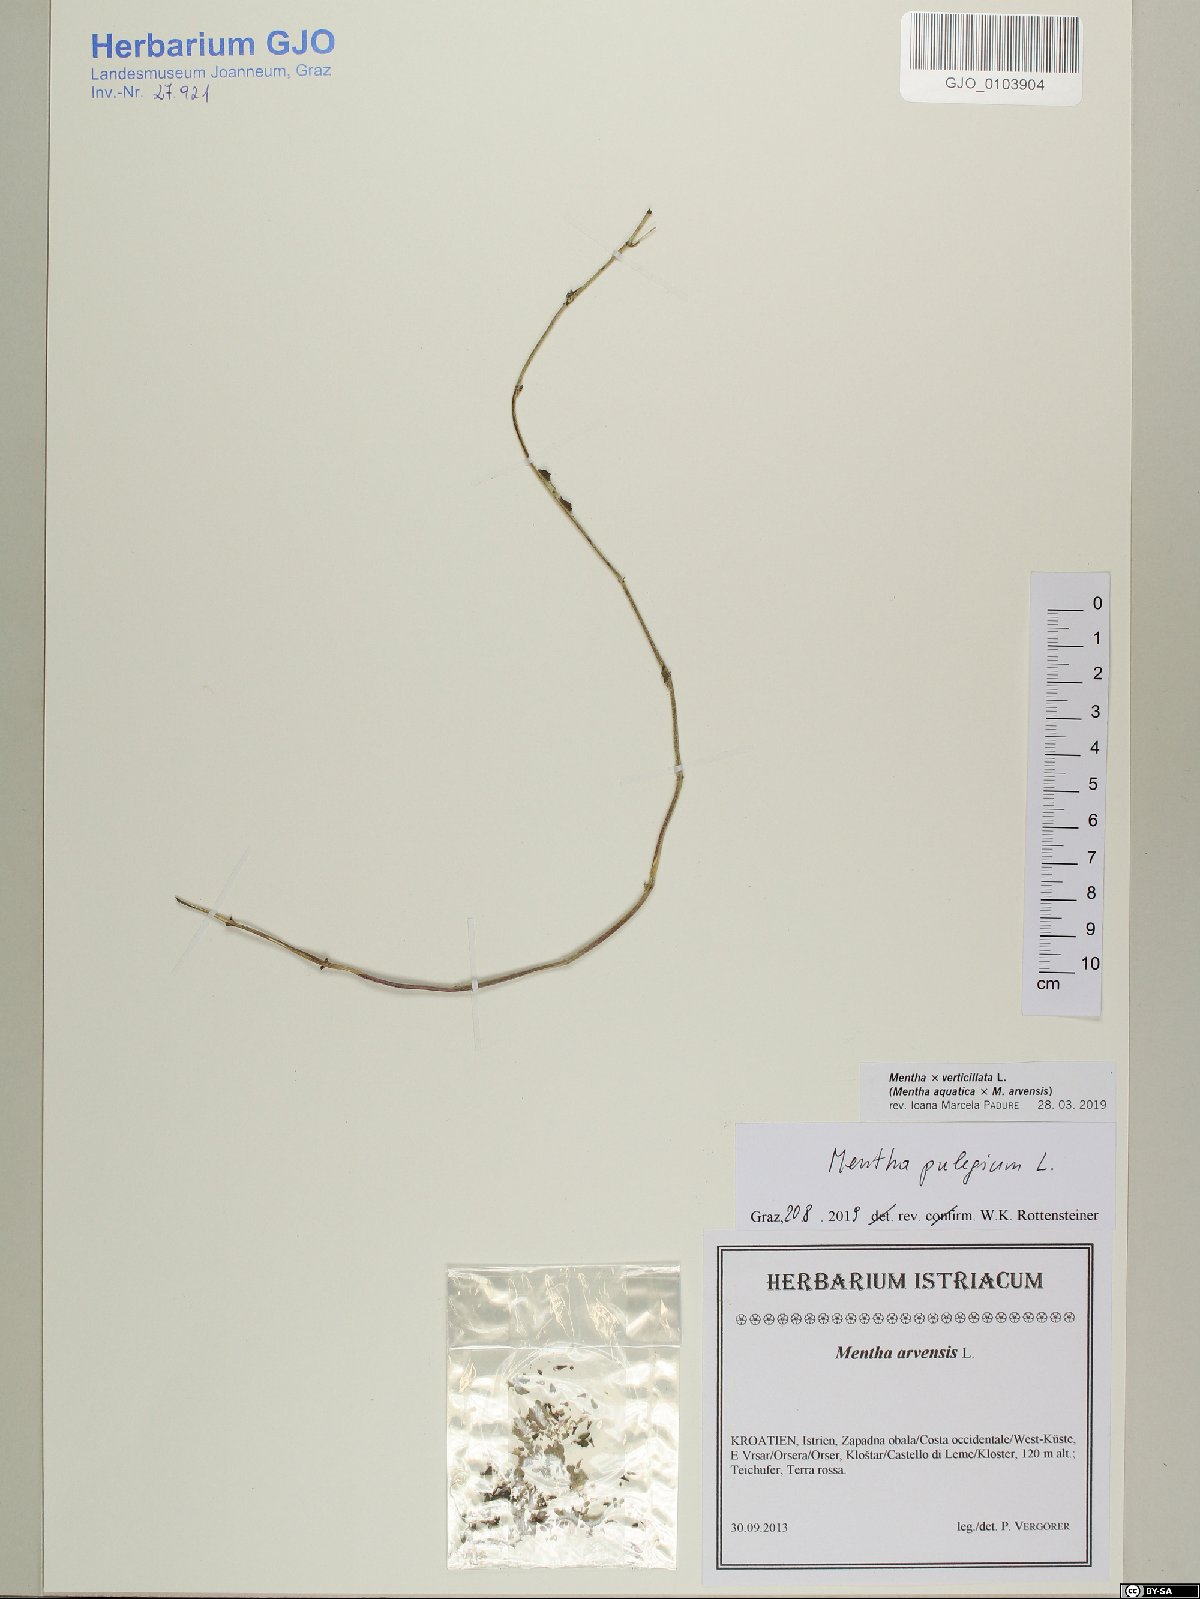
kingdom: Plantae
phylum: Tracheophyta
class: Magnoliopsida
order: Lamiales
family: Lamiaceae
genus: Mentha
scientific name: Mentha verticillata
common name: Mint
